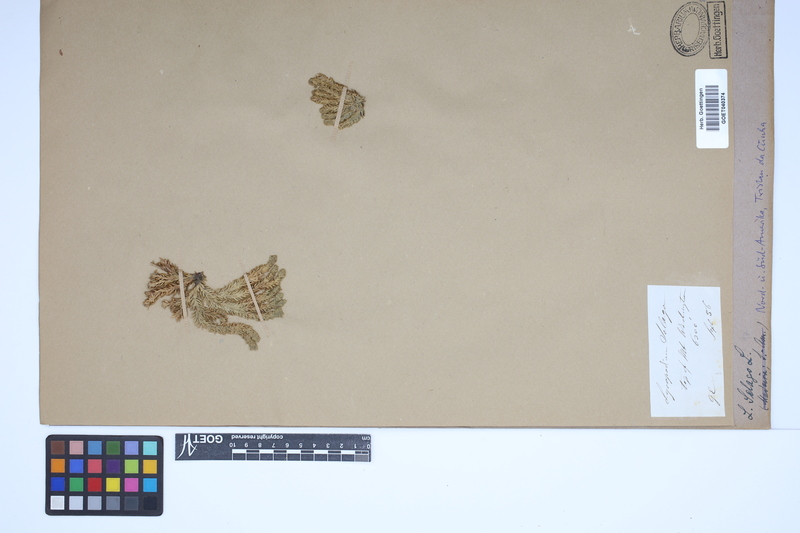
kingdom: Plantae
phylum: Tracheophyta
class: Lycopodiopsida
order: Lycopodiales
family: Lycopodiaceae
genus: Huperzia
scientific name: Huperzia selago
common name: Northern firmoss
